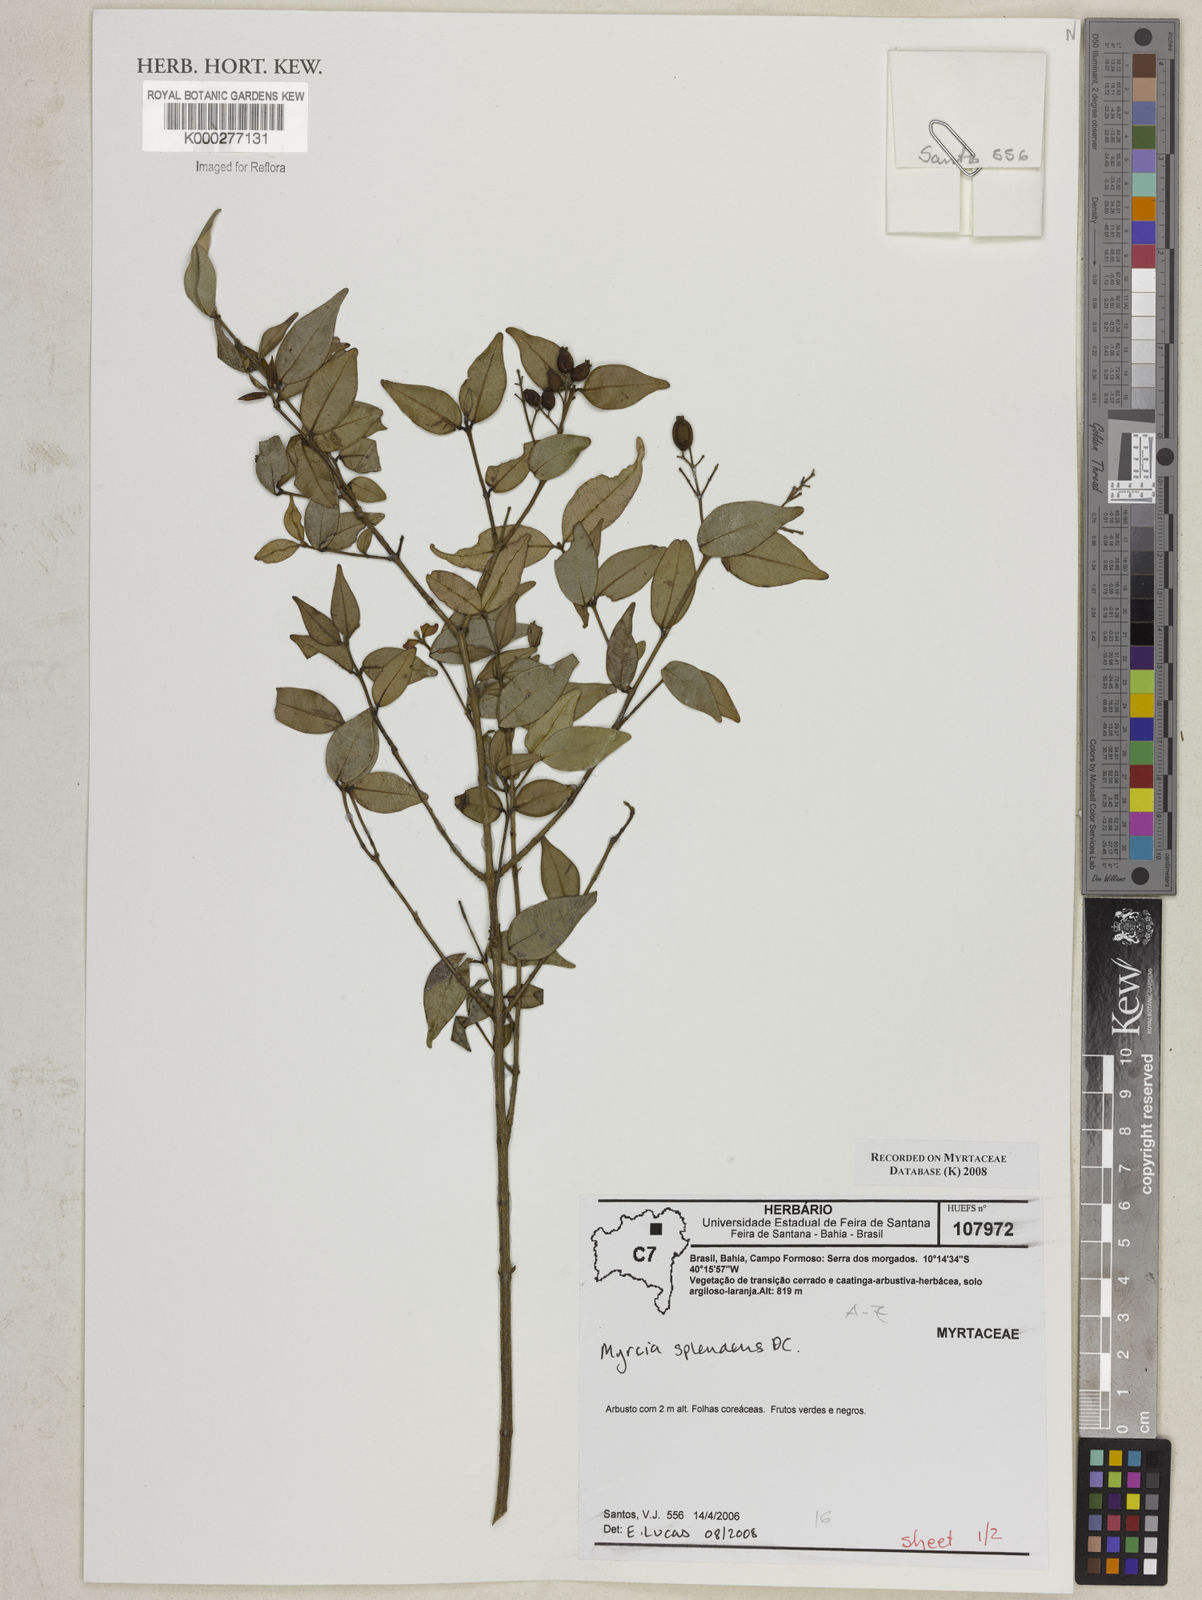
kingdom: Plantae
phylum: Tracheophyta
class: Magnoliopsida
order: Myrtales
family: Myrtaceae
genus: Myrcia
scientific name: Myrcia splendens
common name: Surinam cherry
